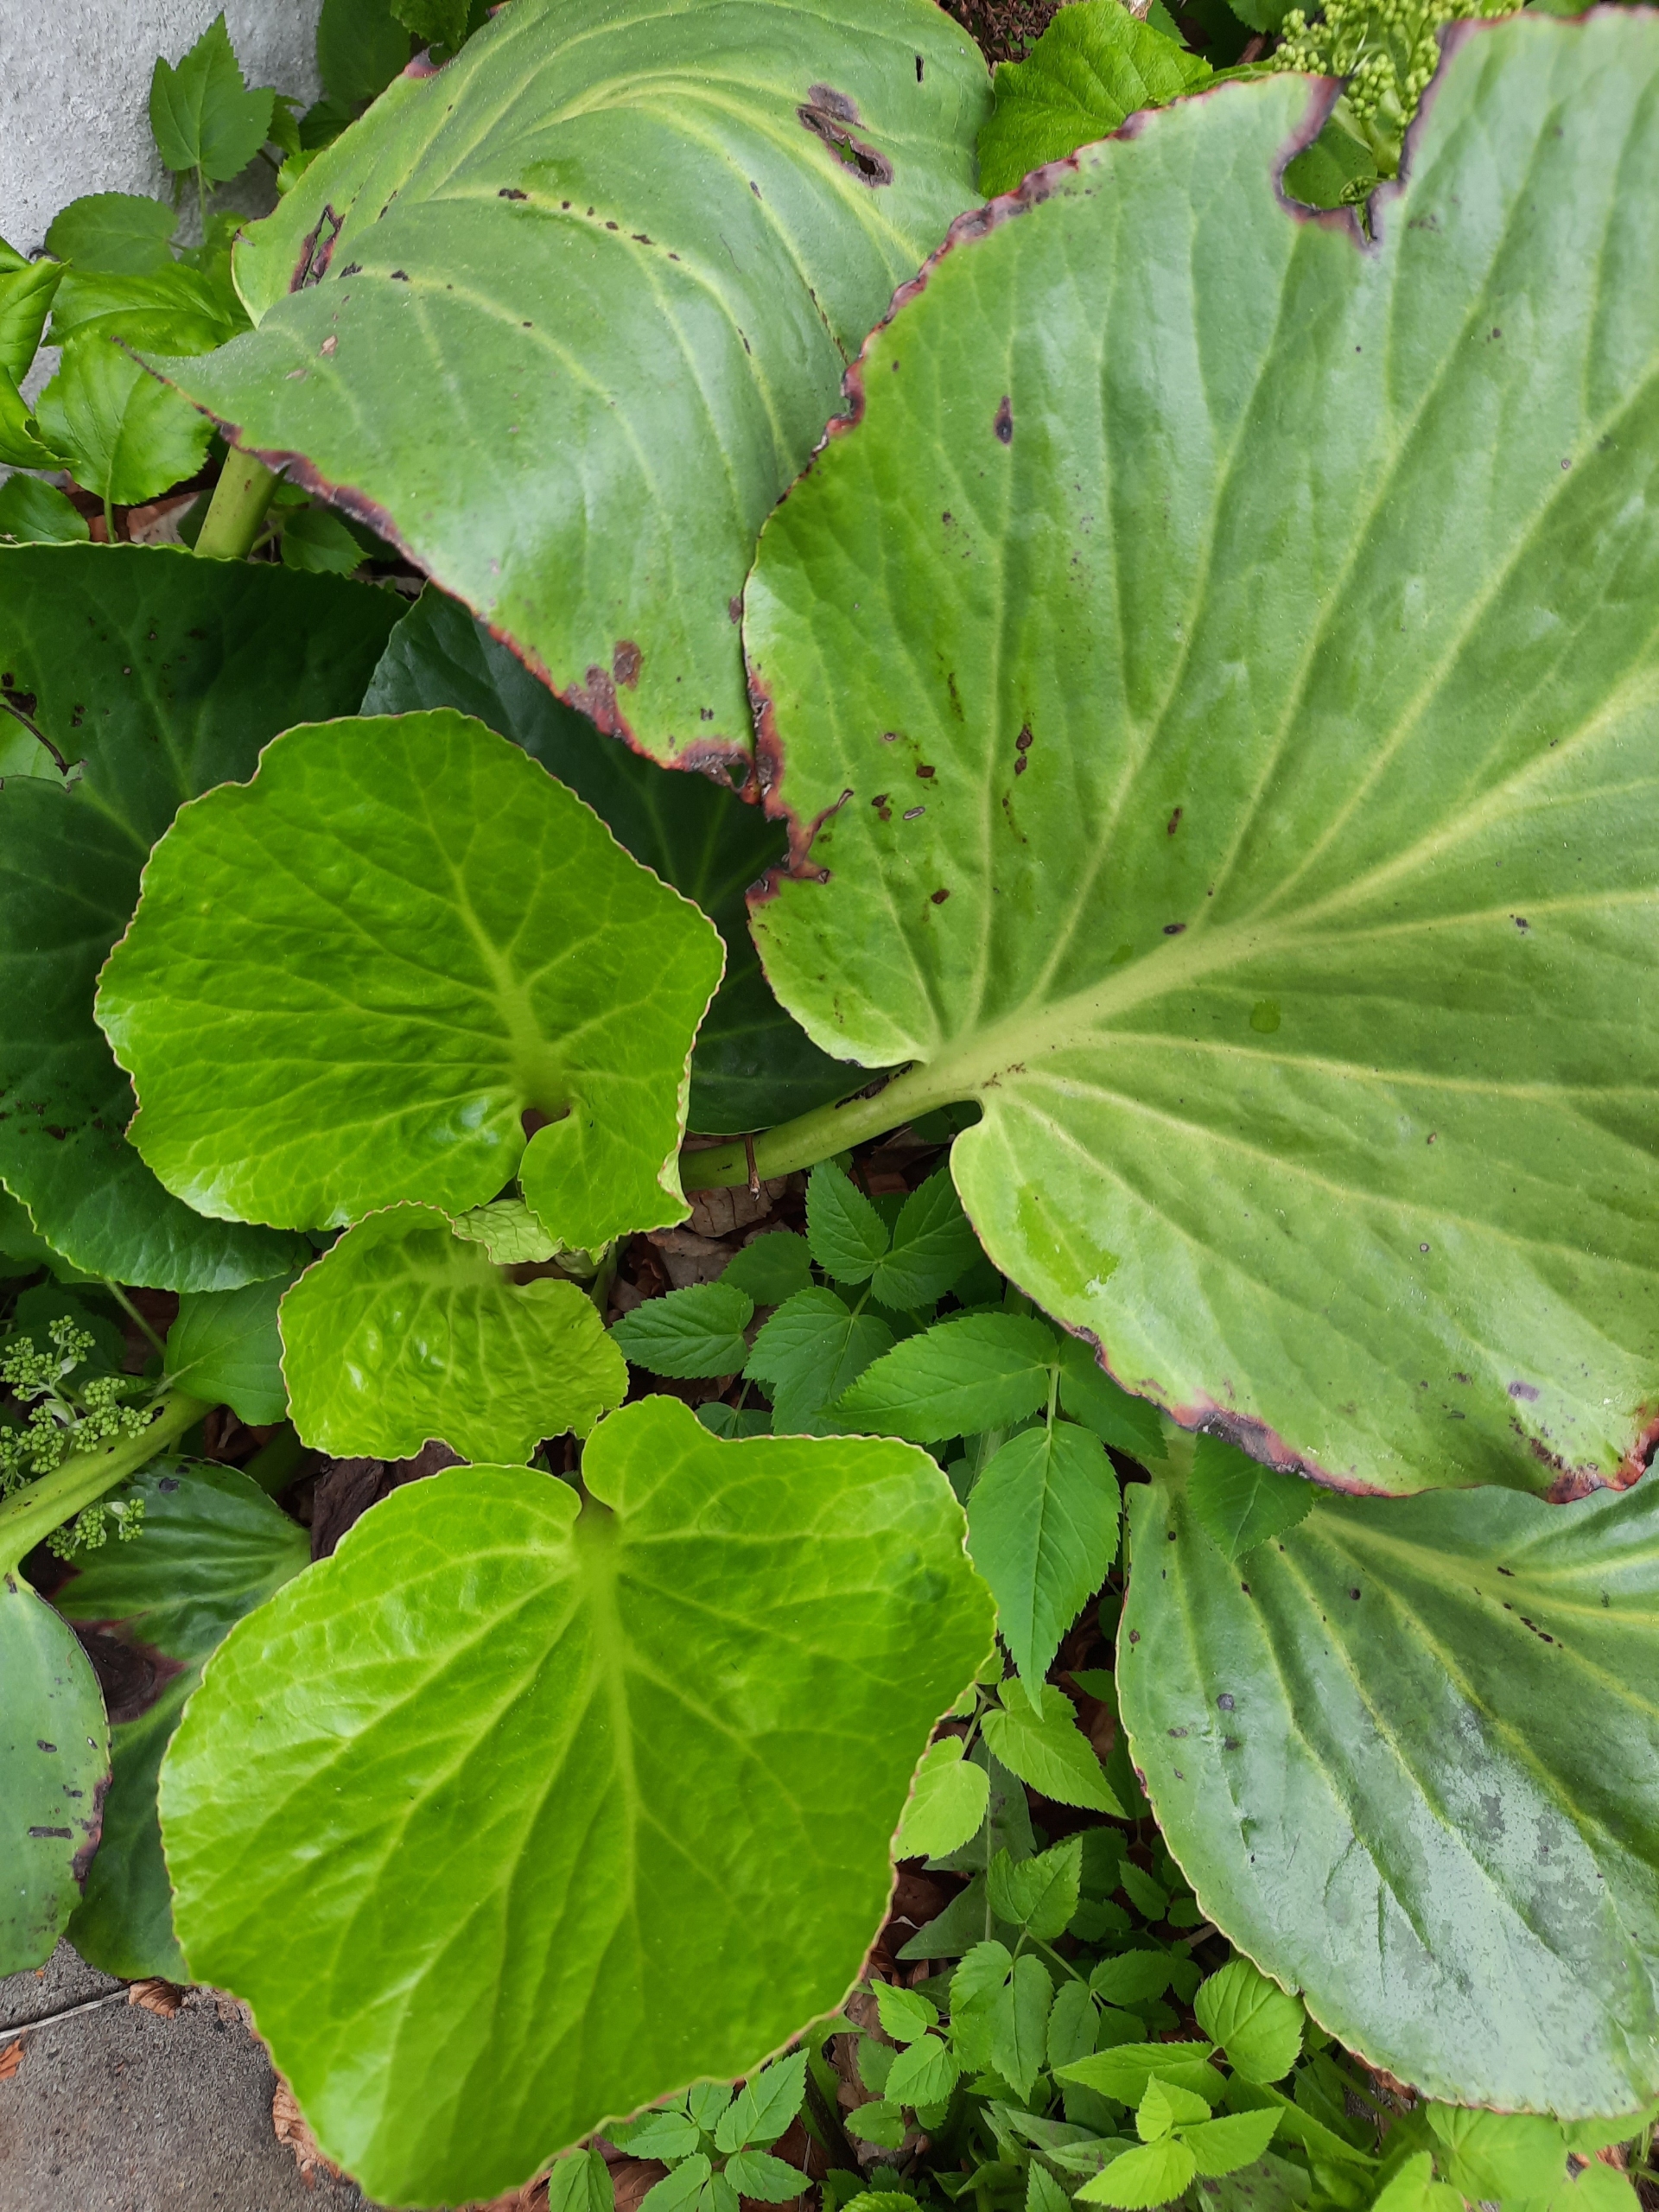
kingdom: Plantae
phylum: Tracheophyta
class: Magnoliopsida
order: Saxifragales
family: Saxifragaceae
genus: Bergenia
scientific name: Bergenia crassifolia
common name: Almindelig kæmpestenbræk
